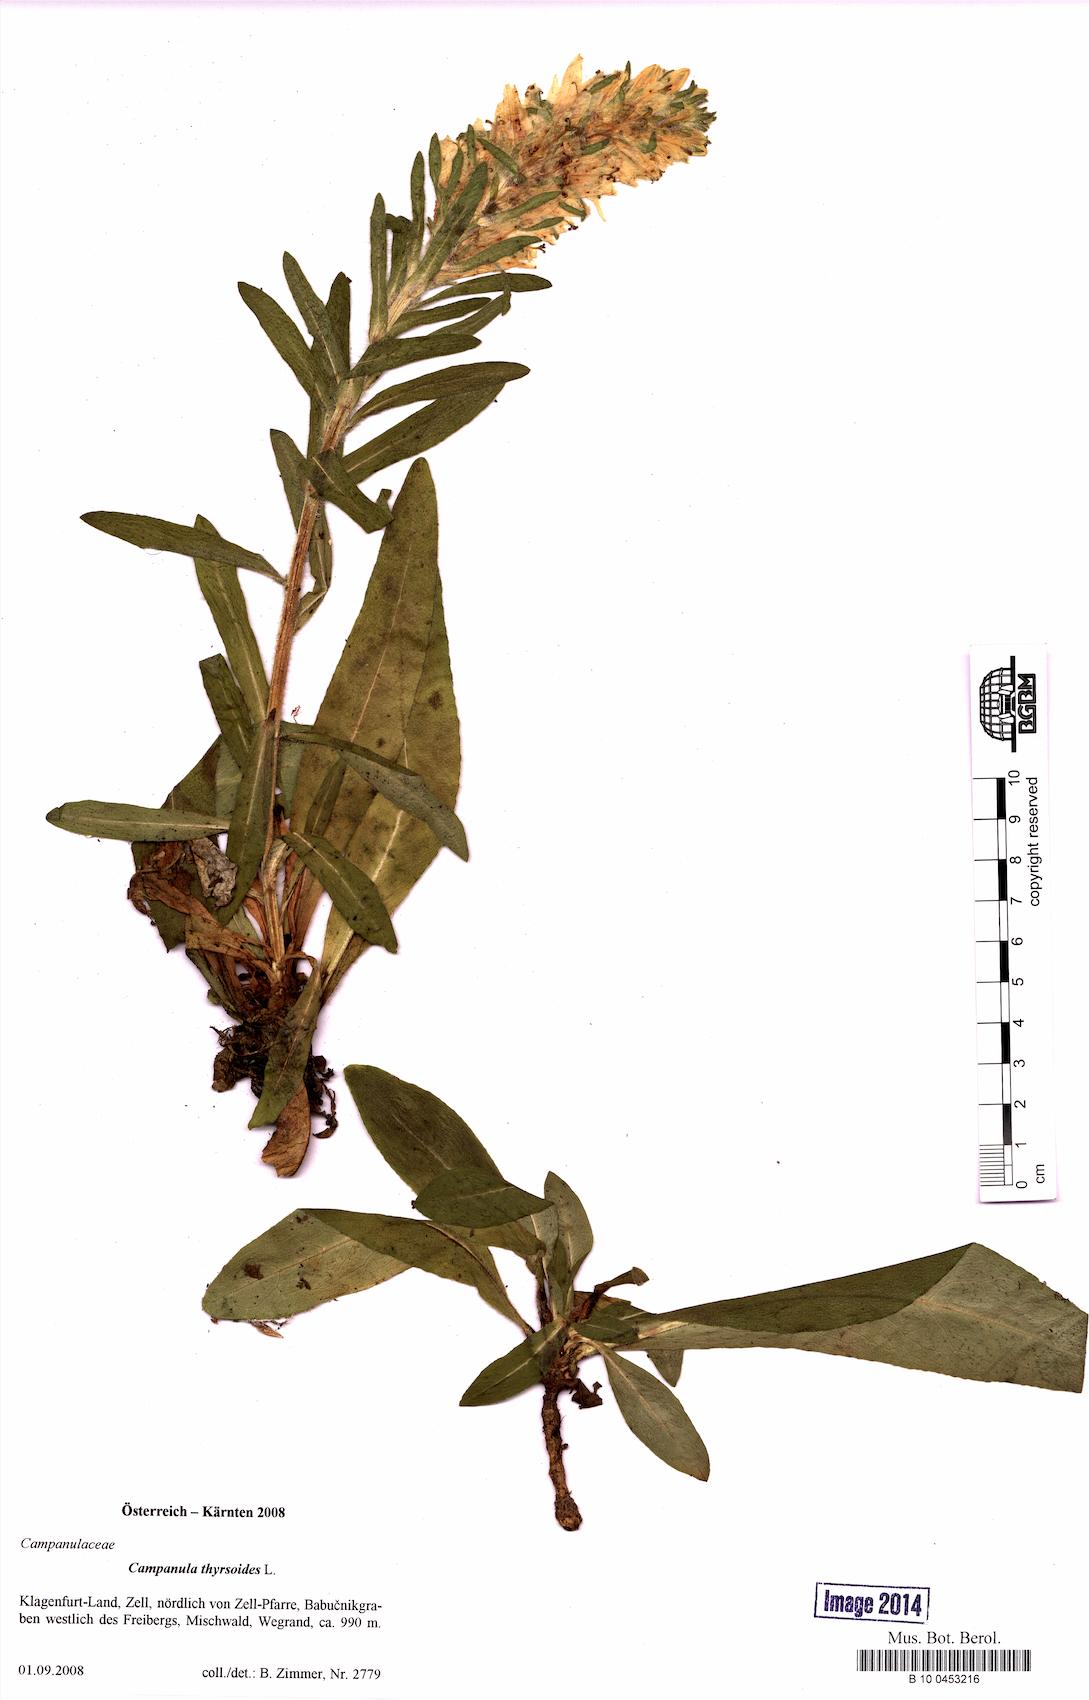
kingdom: Plantae
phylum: Tracheophyta
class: Magnoliopsida
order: Asterales
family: Campanulaceae
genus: Campanula
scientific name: Campanula thyrsoides
